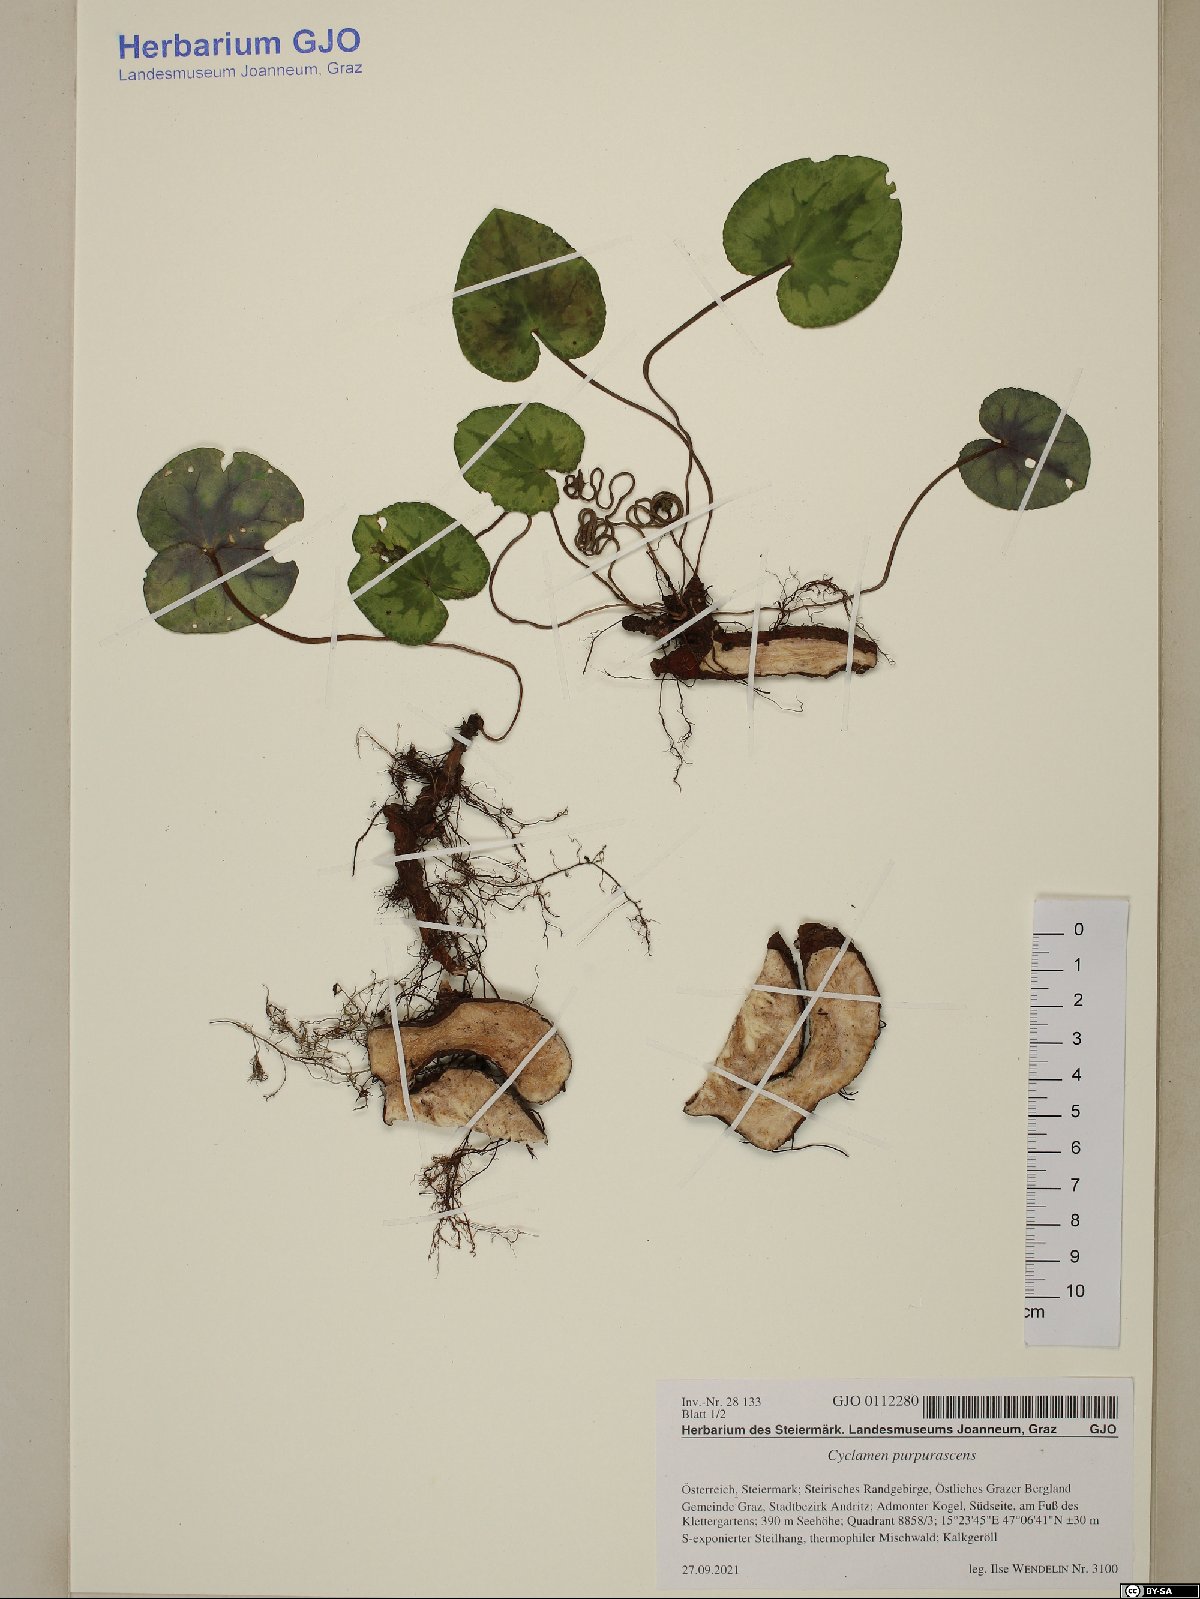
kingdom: Plantae
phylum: Tracheophyta
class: Magnoliopsida
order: Ericales
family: Primulaceae
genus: Cyclamen
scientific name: Cyclamen purpurascens
